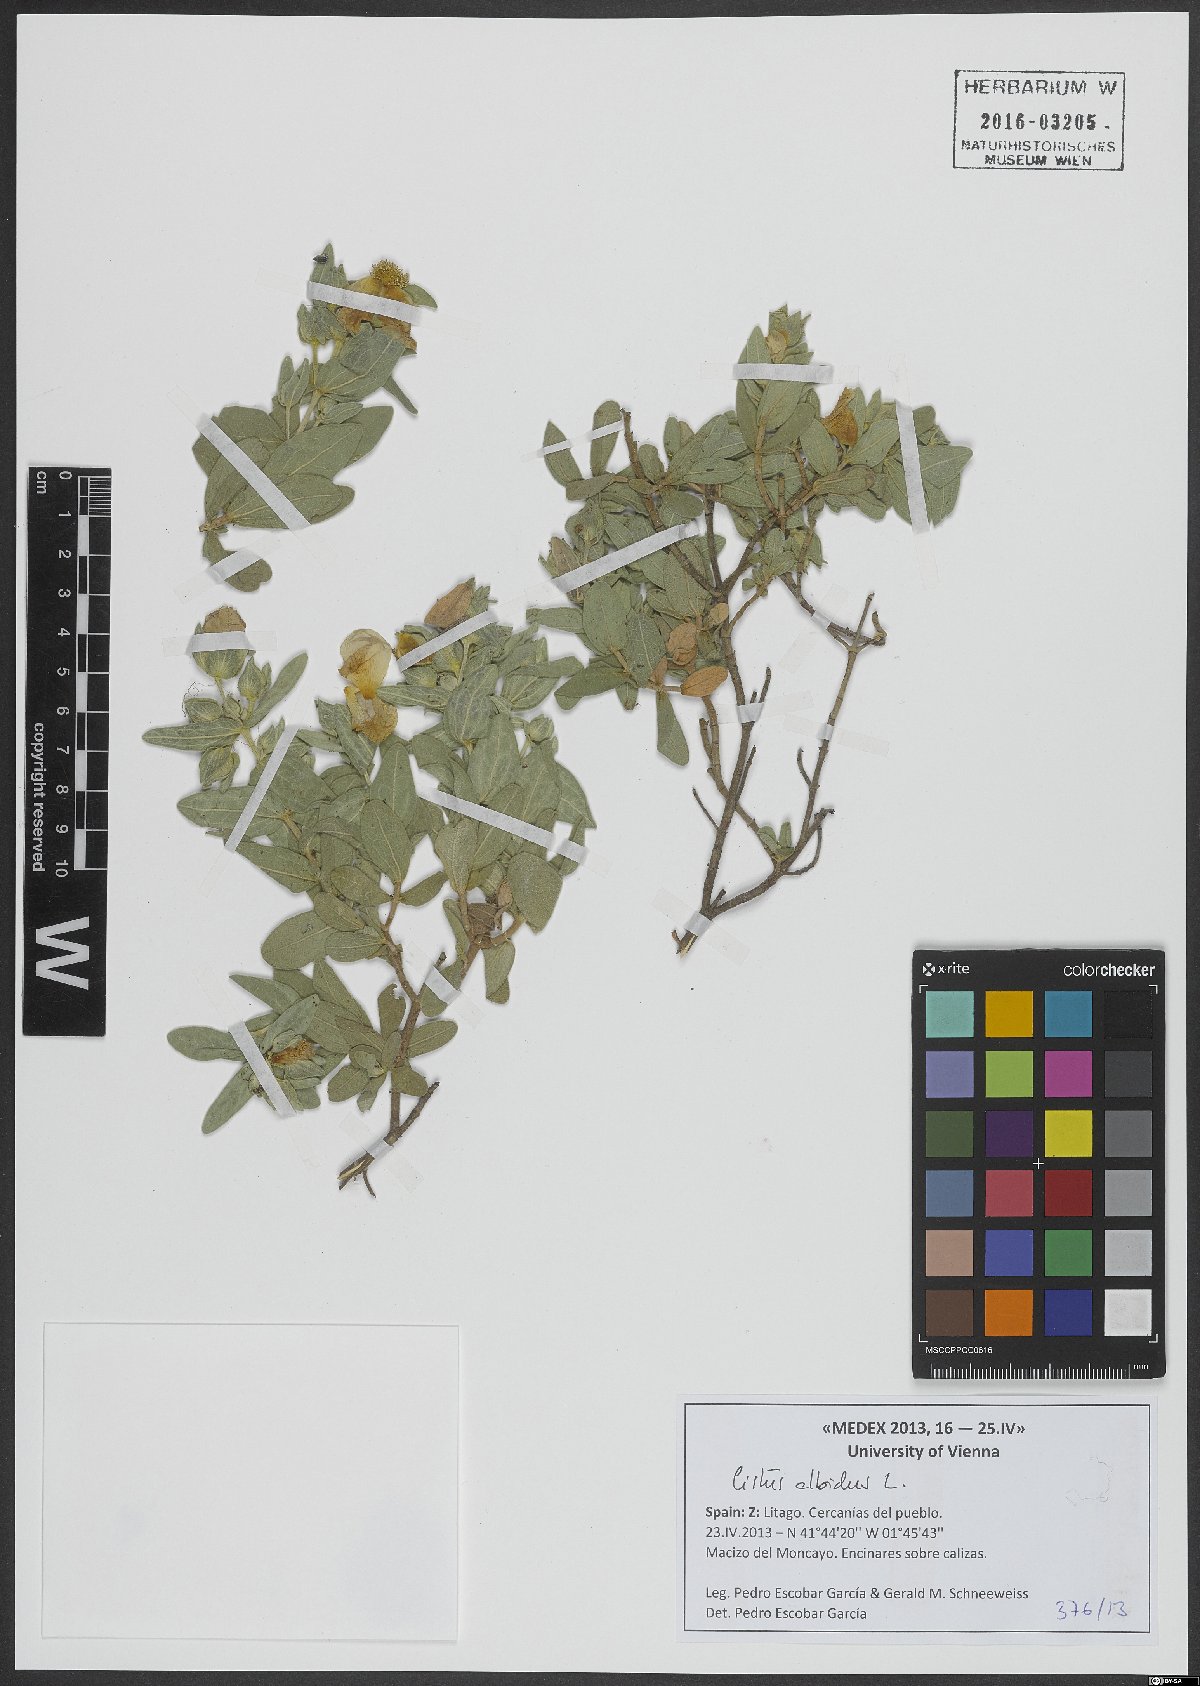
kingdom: Plantae
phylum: Tracheophyta
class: Magnoliopsida
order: Malvales
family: Cistaceae
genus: Cistus
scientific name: Cistus albidus
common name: White-leaf rock-rose
